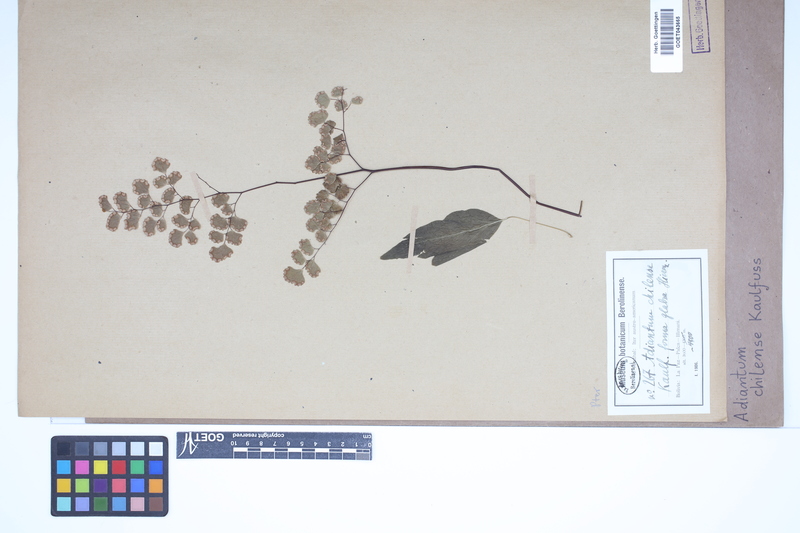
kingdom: Plantae
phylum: Tracheophyta
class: Polypodiopsida
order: Polypodiales
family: Pteridaceae
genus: Adiantum
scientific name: Adiantum chilense
